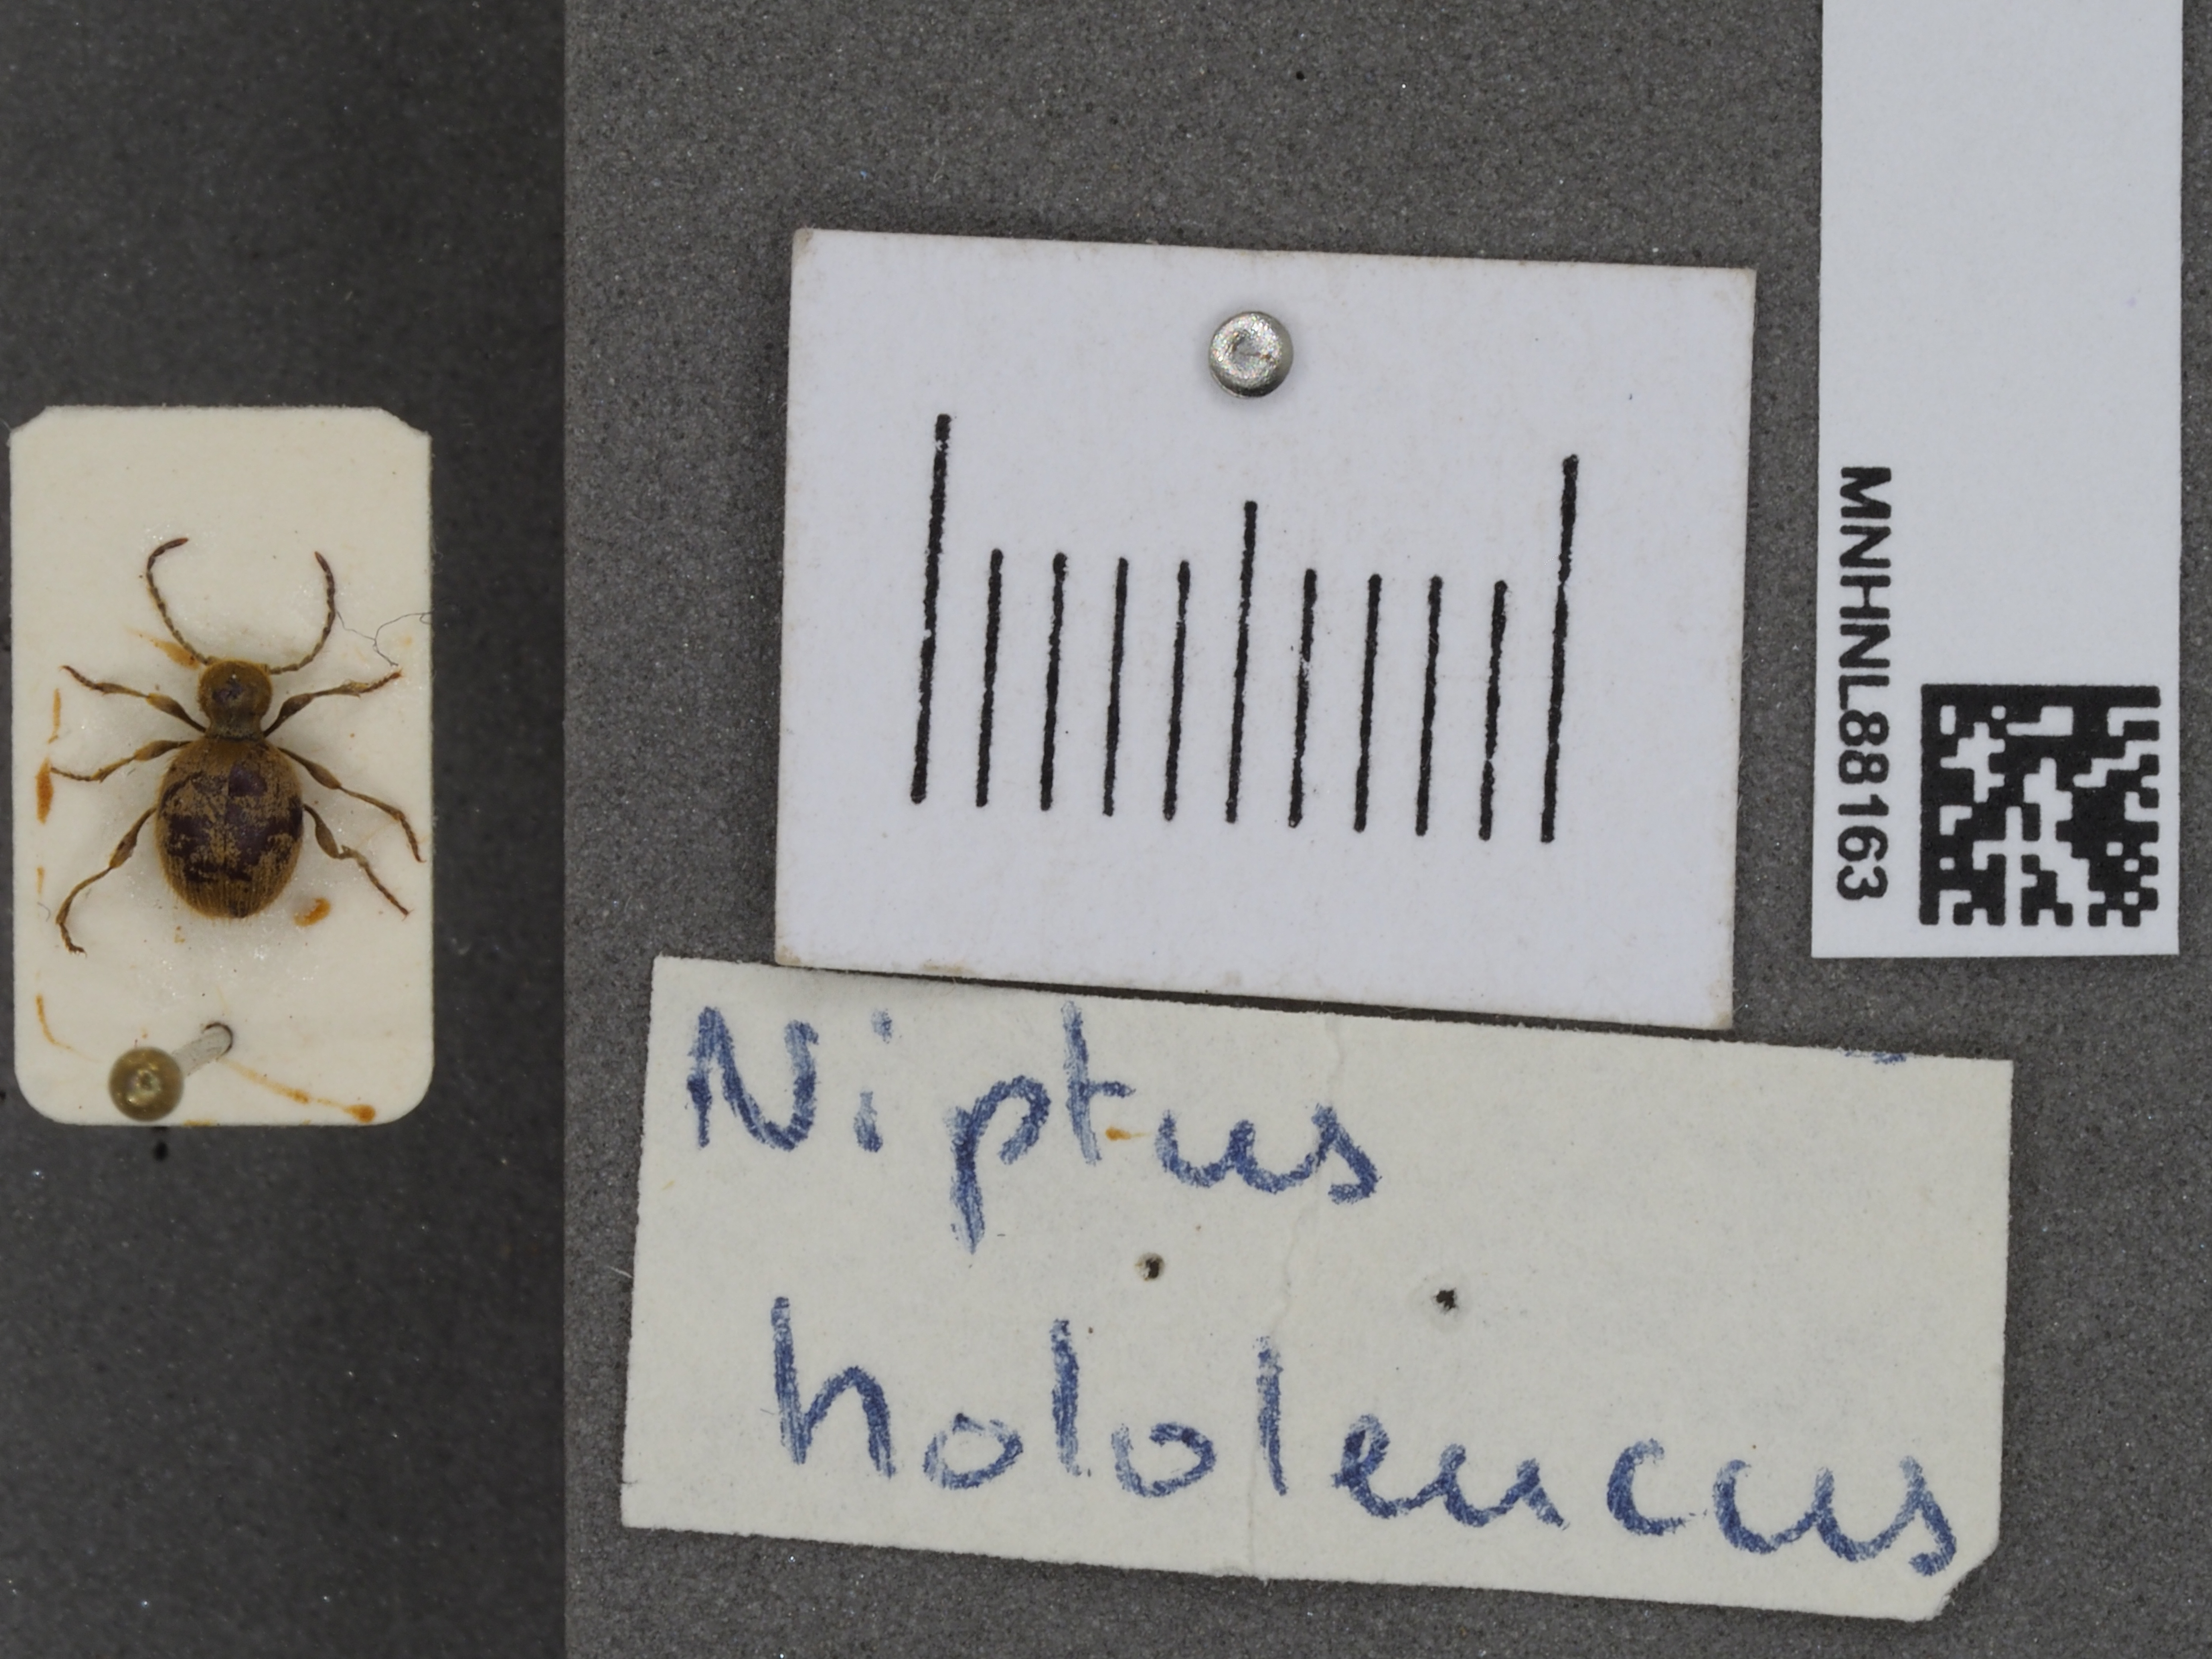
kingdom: Animalia
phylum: Arthropoda
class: Insecta
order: Coleoptera
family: Ptinidae
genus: Niptus
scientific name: Niptus hololeucus
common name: Golden spider beetle
